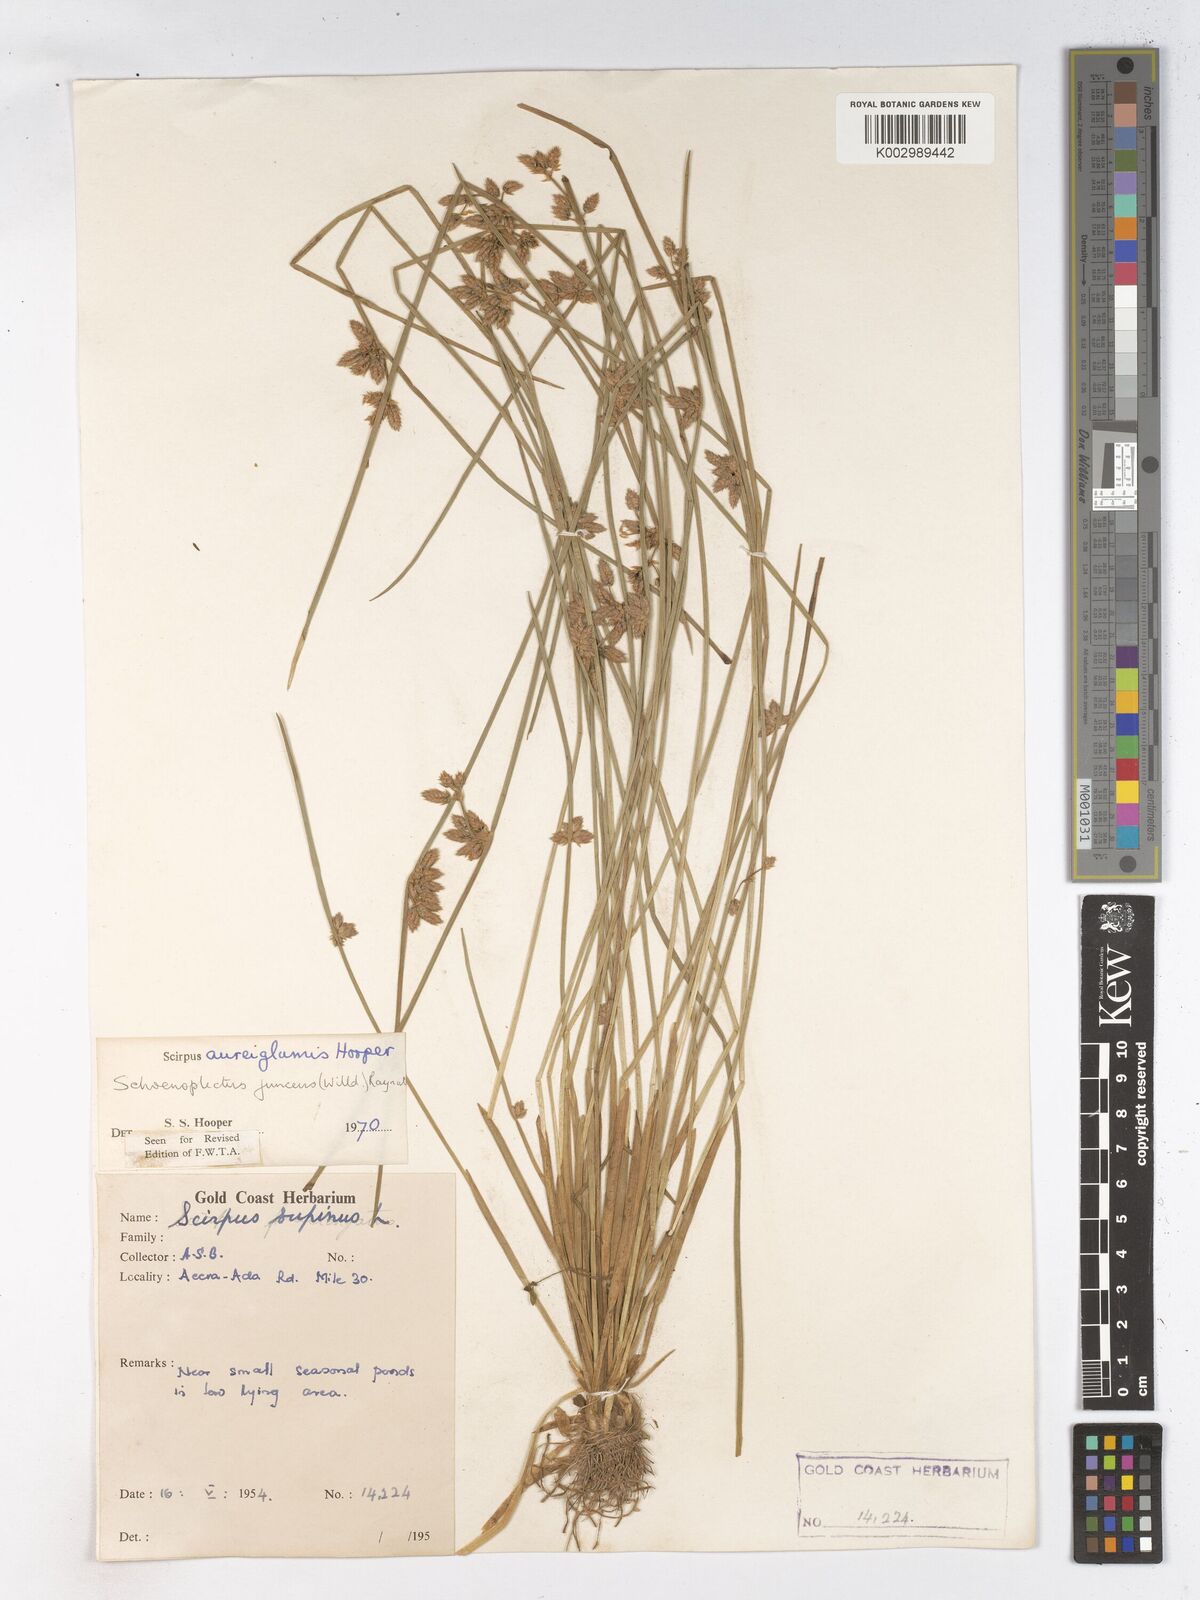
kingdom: Plantae
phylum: Tracheophyta
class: Liliopsida
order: Poales
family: Cyperaceae
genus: Schoenoplectiella
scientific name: Schoenoplectiella juncea
